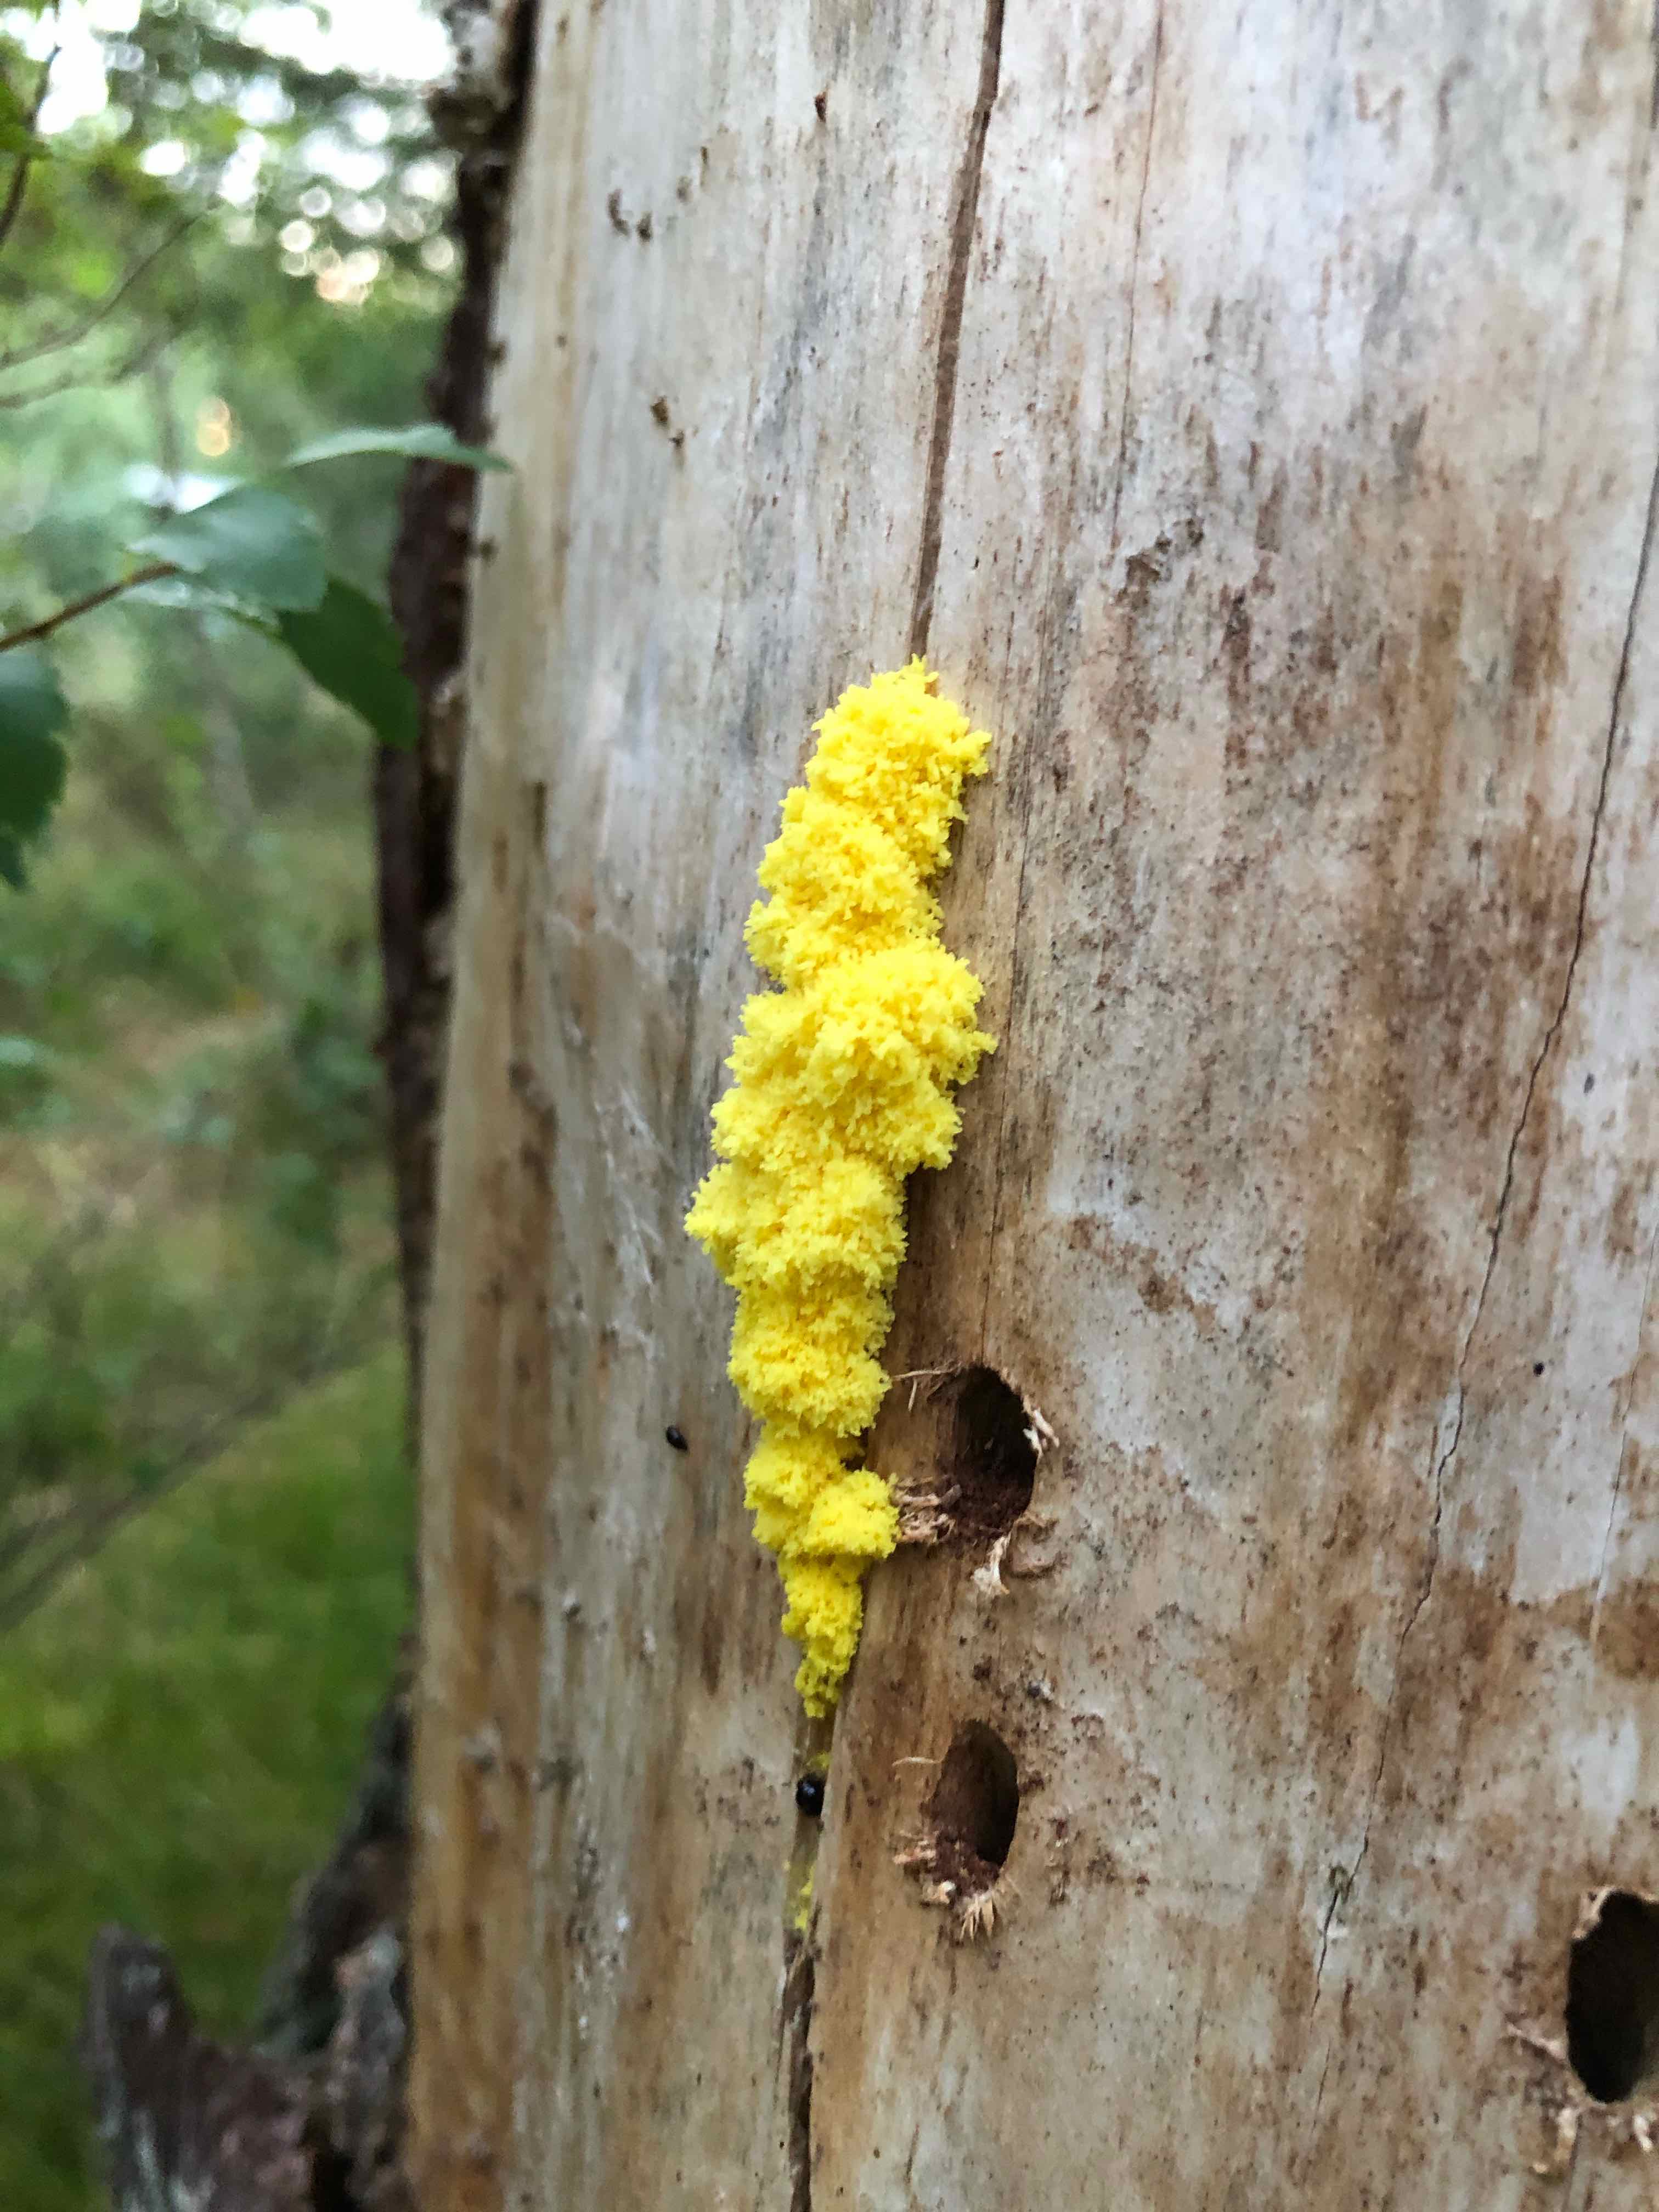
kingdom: Protozoa
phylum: Mycetozoa
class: Myxomycetes
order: Physarales
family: Physaraceae
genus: Fuligo
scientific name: Fuligo septica
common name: gul troldsmør
